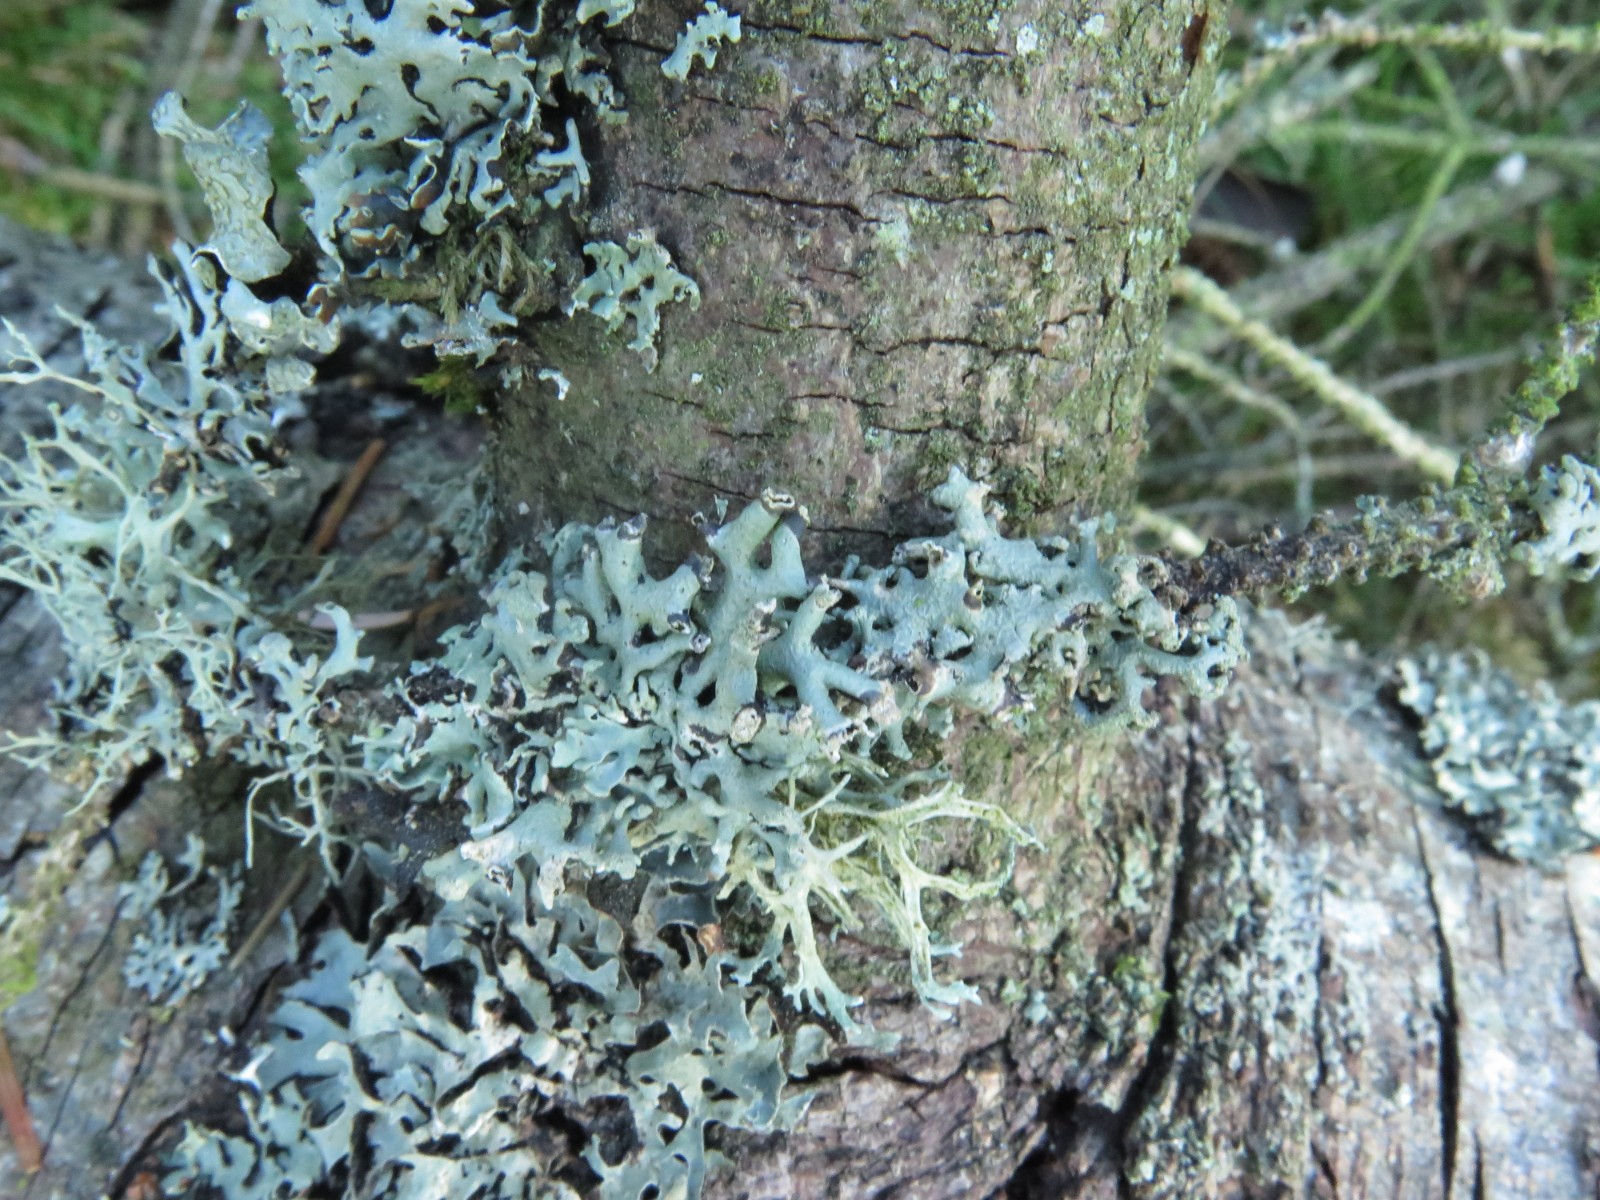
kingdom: Fungi
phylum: Ascomycota
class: Lecanoromycetes
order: Lecanorales
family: Parmeliaceae
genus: Hypogymnia
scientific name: Hypogymnia tubulosa
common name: finger-kvistlav
